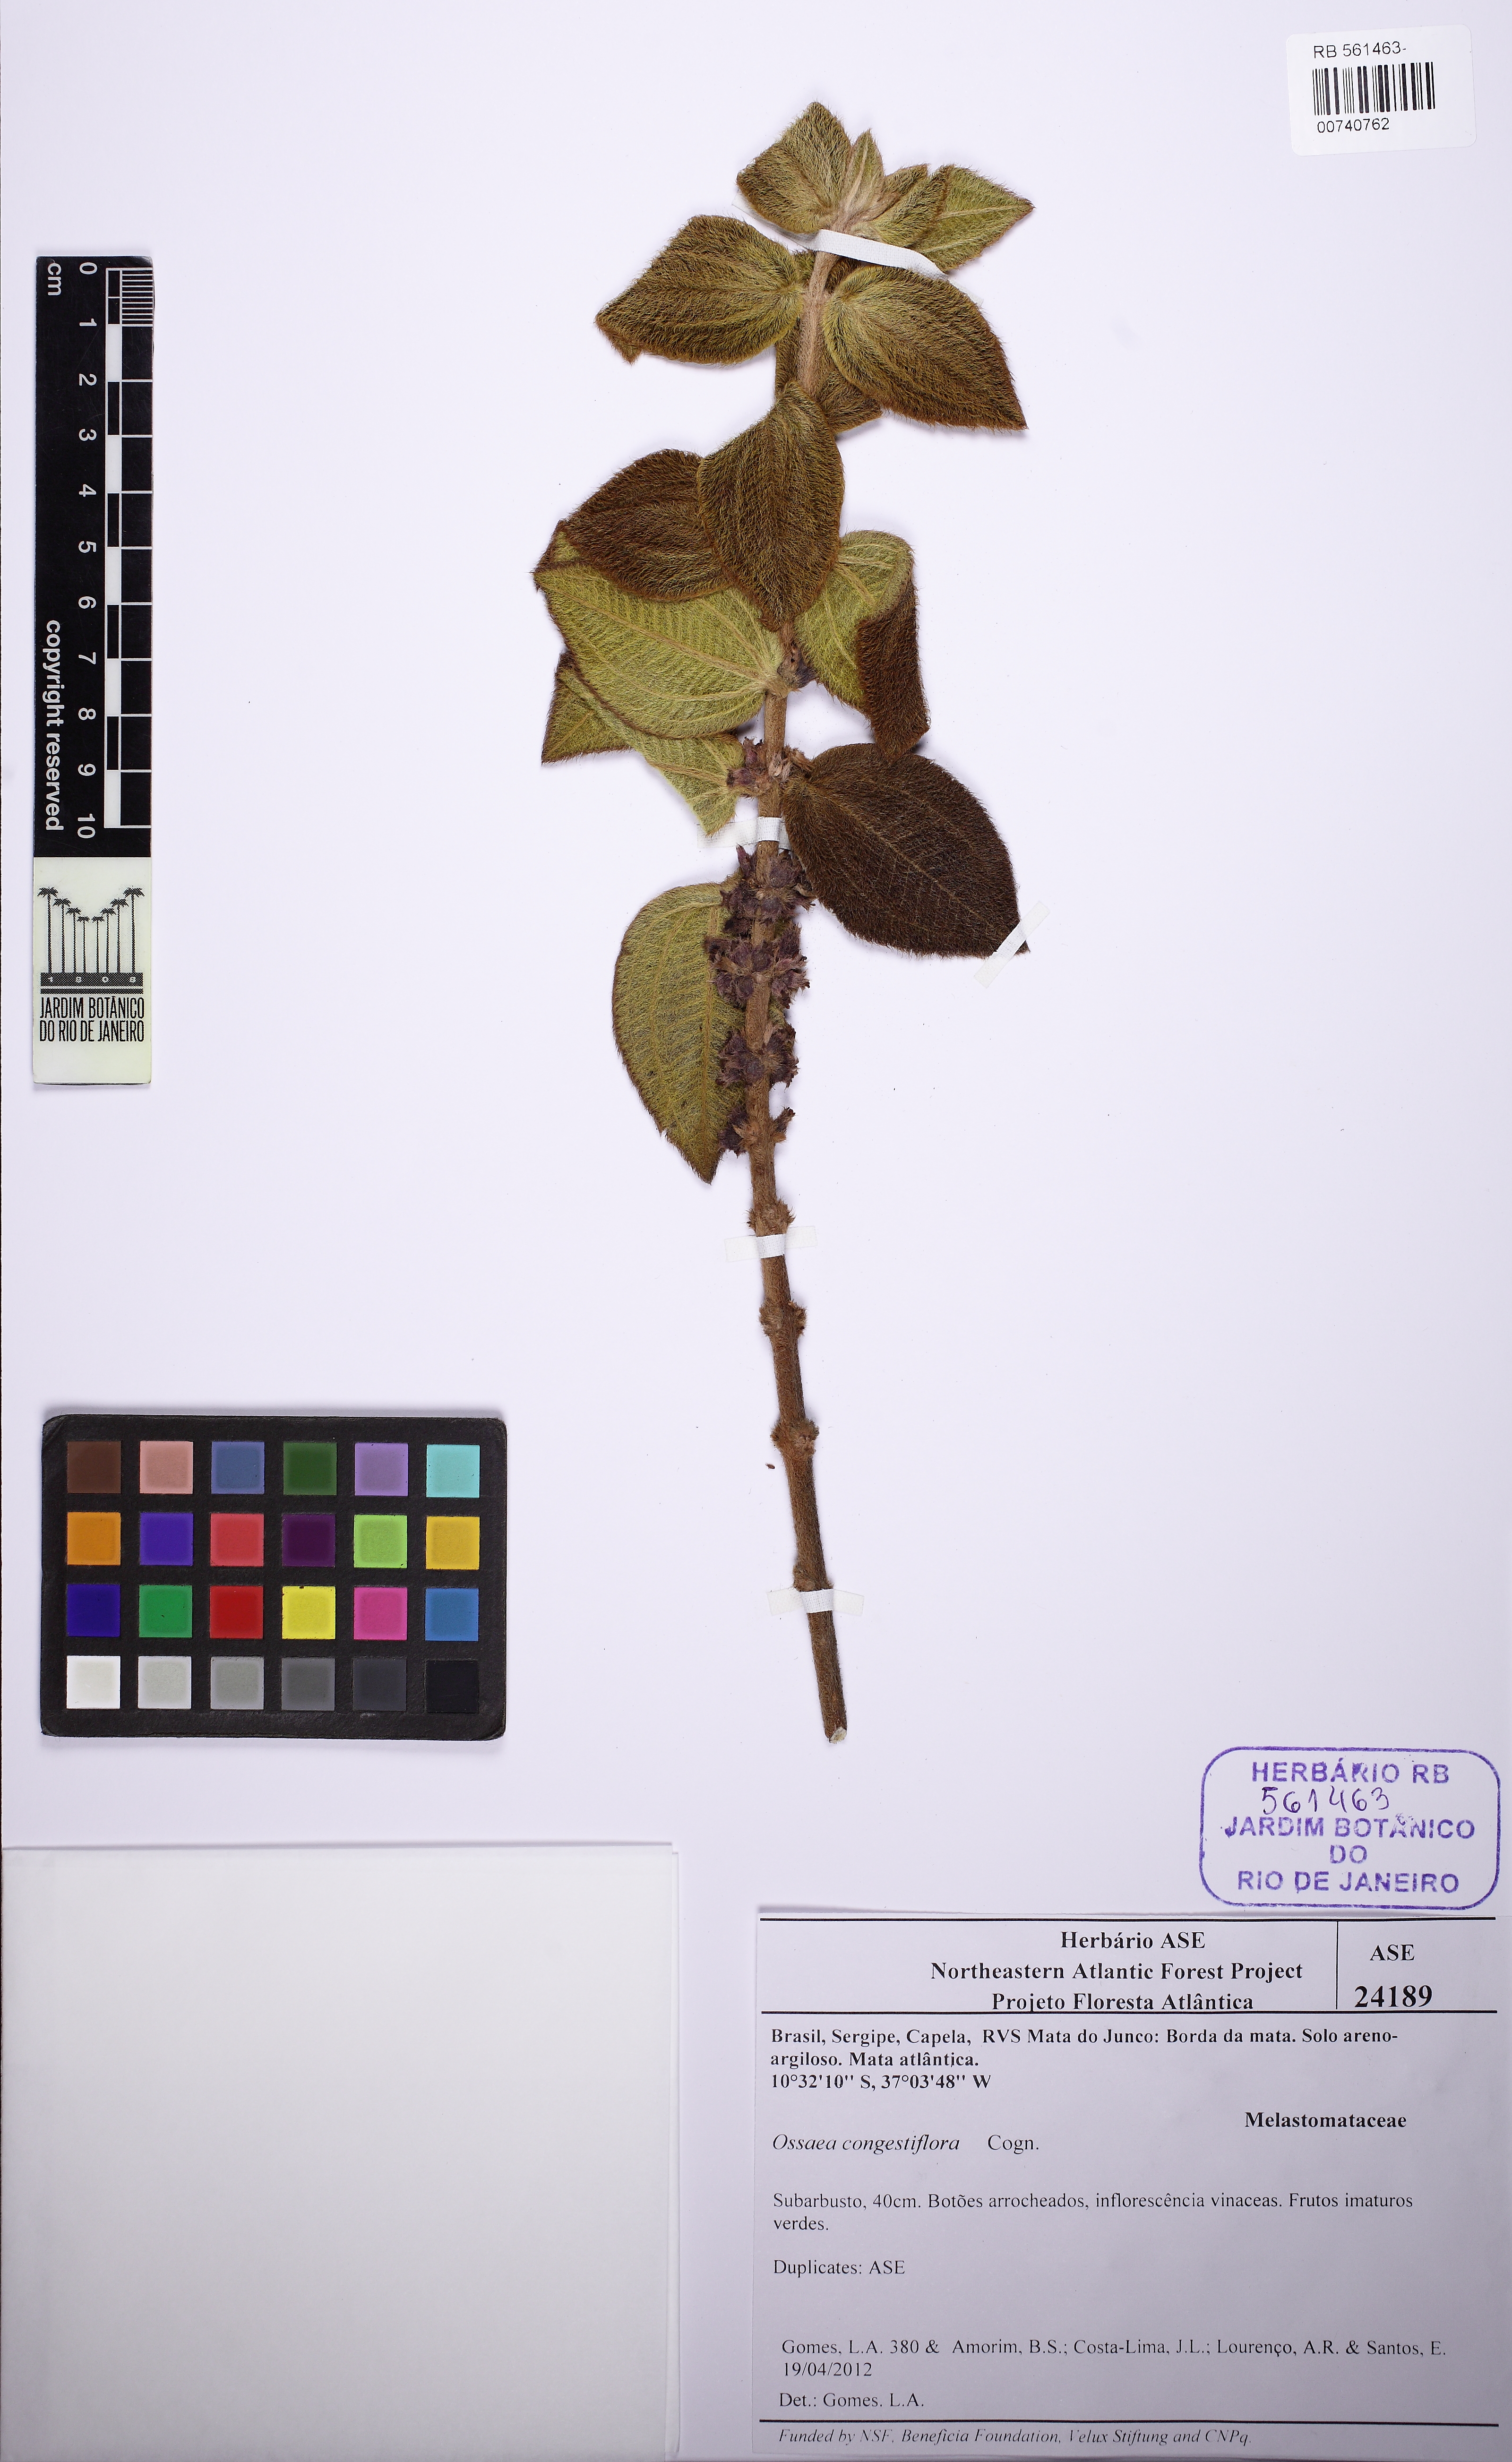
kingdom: Plantae
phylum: Tracheophyta
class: Magnoliopsida
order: Myrtales
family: Melastomataceae
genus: Miconia
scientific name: Miconia leacongestiflora
